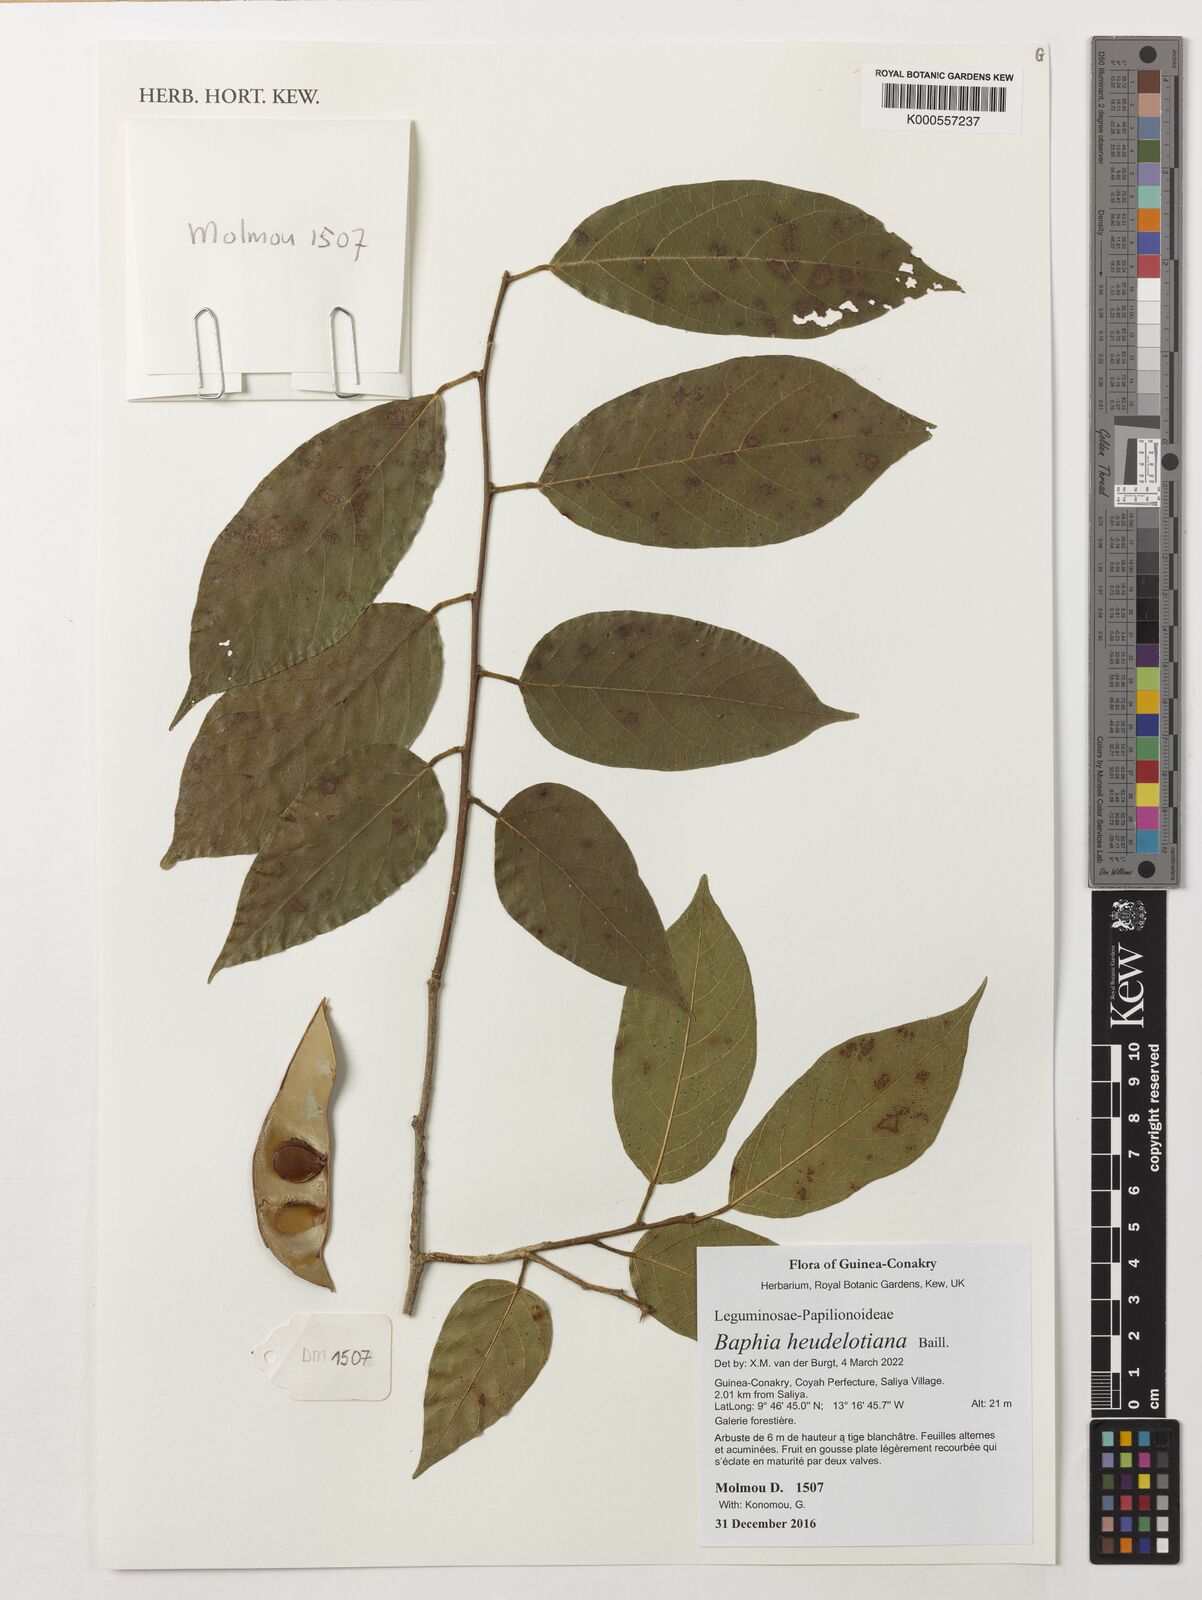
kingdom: Plantae
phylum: Tracheophyta
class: Magnoliopsida
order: Fabales
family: Fabaceae
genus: Baphia
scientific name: Baphia heudelotiana
